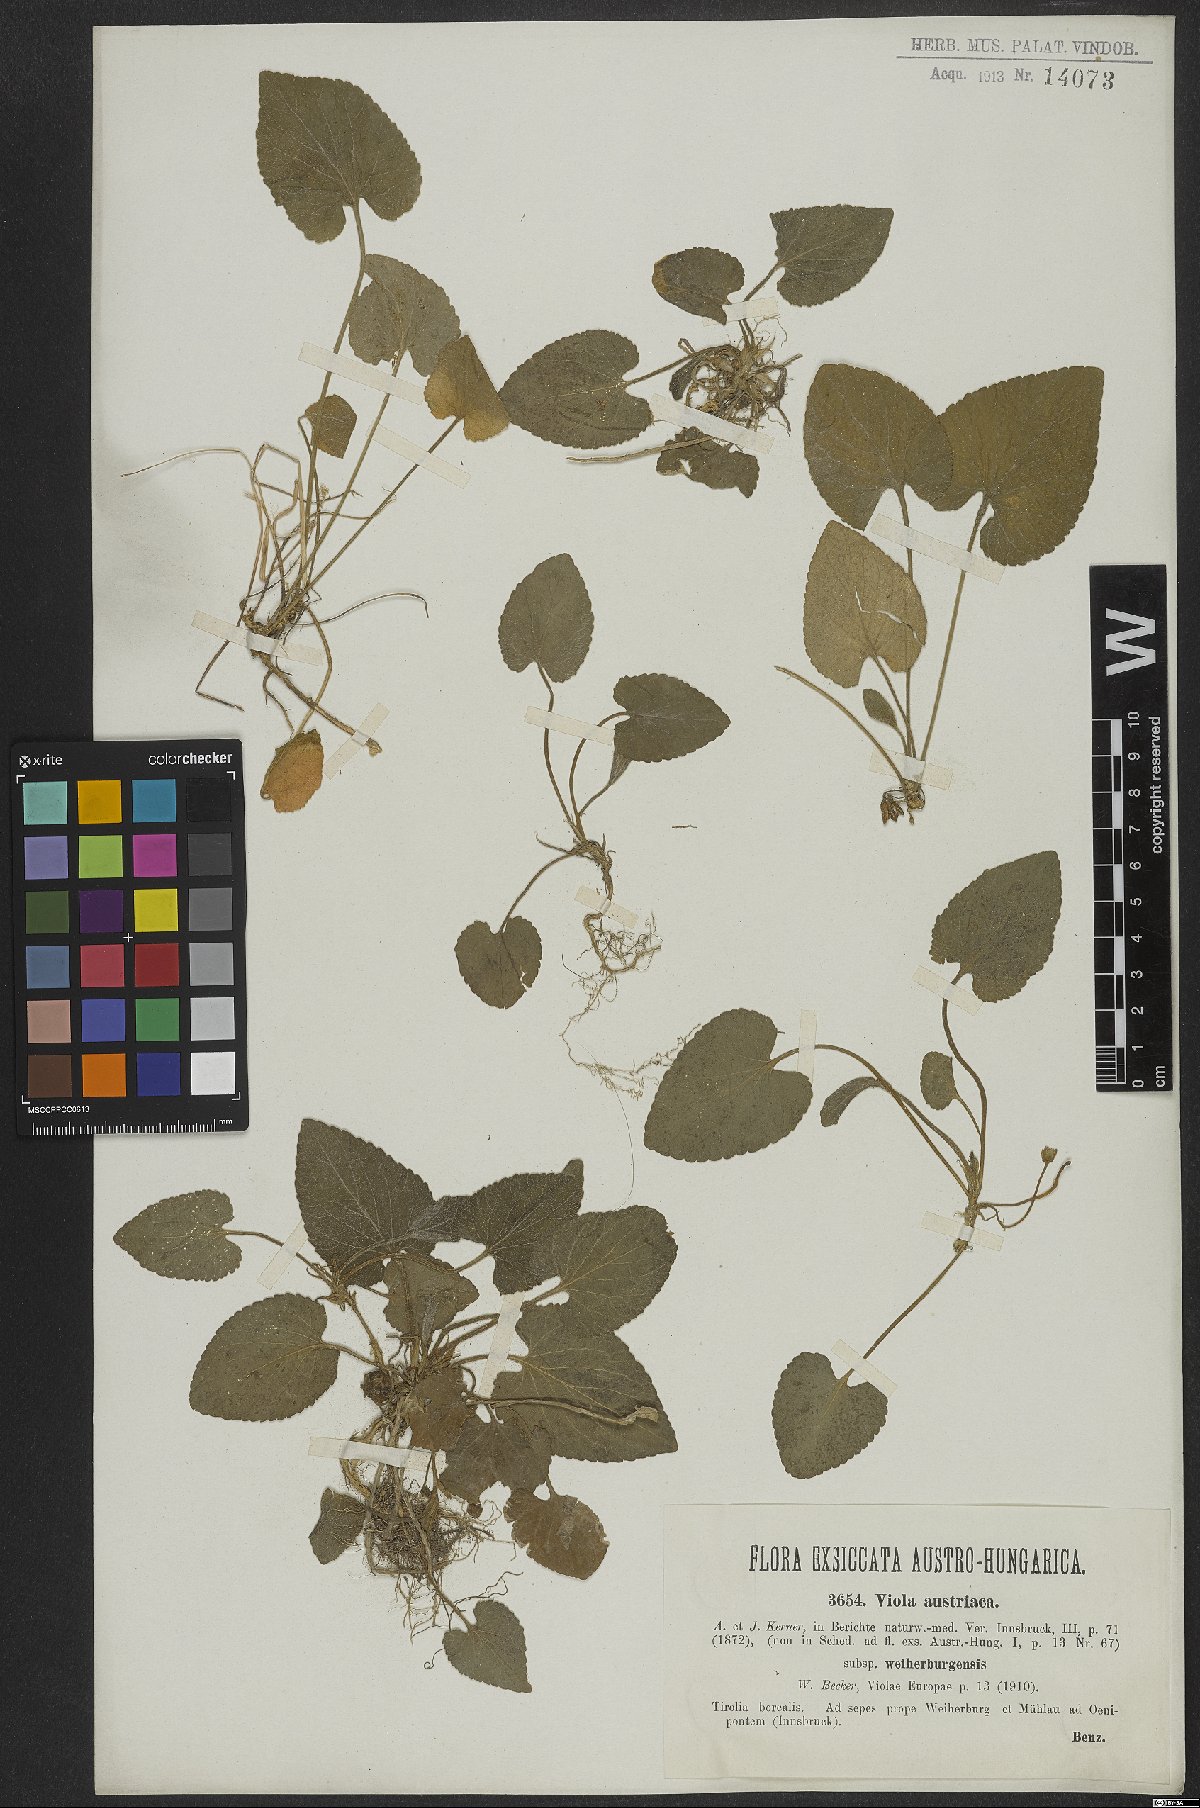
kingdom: Plantae
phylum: Tracheophyta
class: Magnoliopsida
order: Malpighiales
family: Violaceae
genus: Viola
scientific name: Viola suavis
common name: Russian violet
